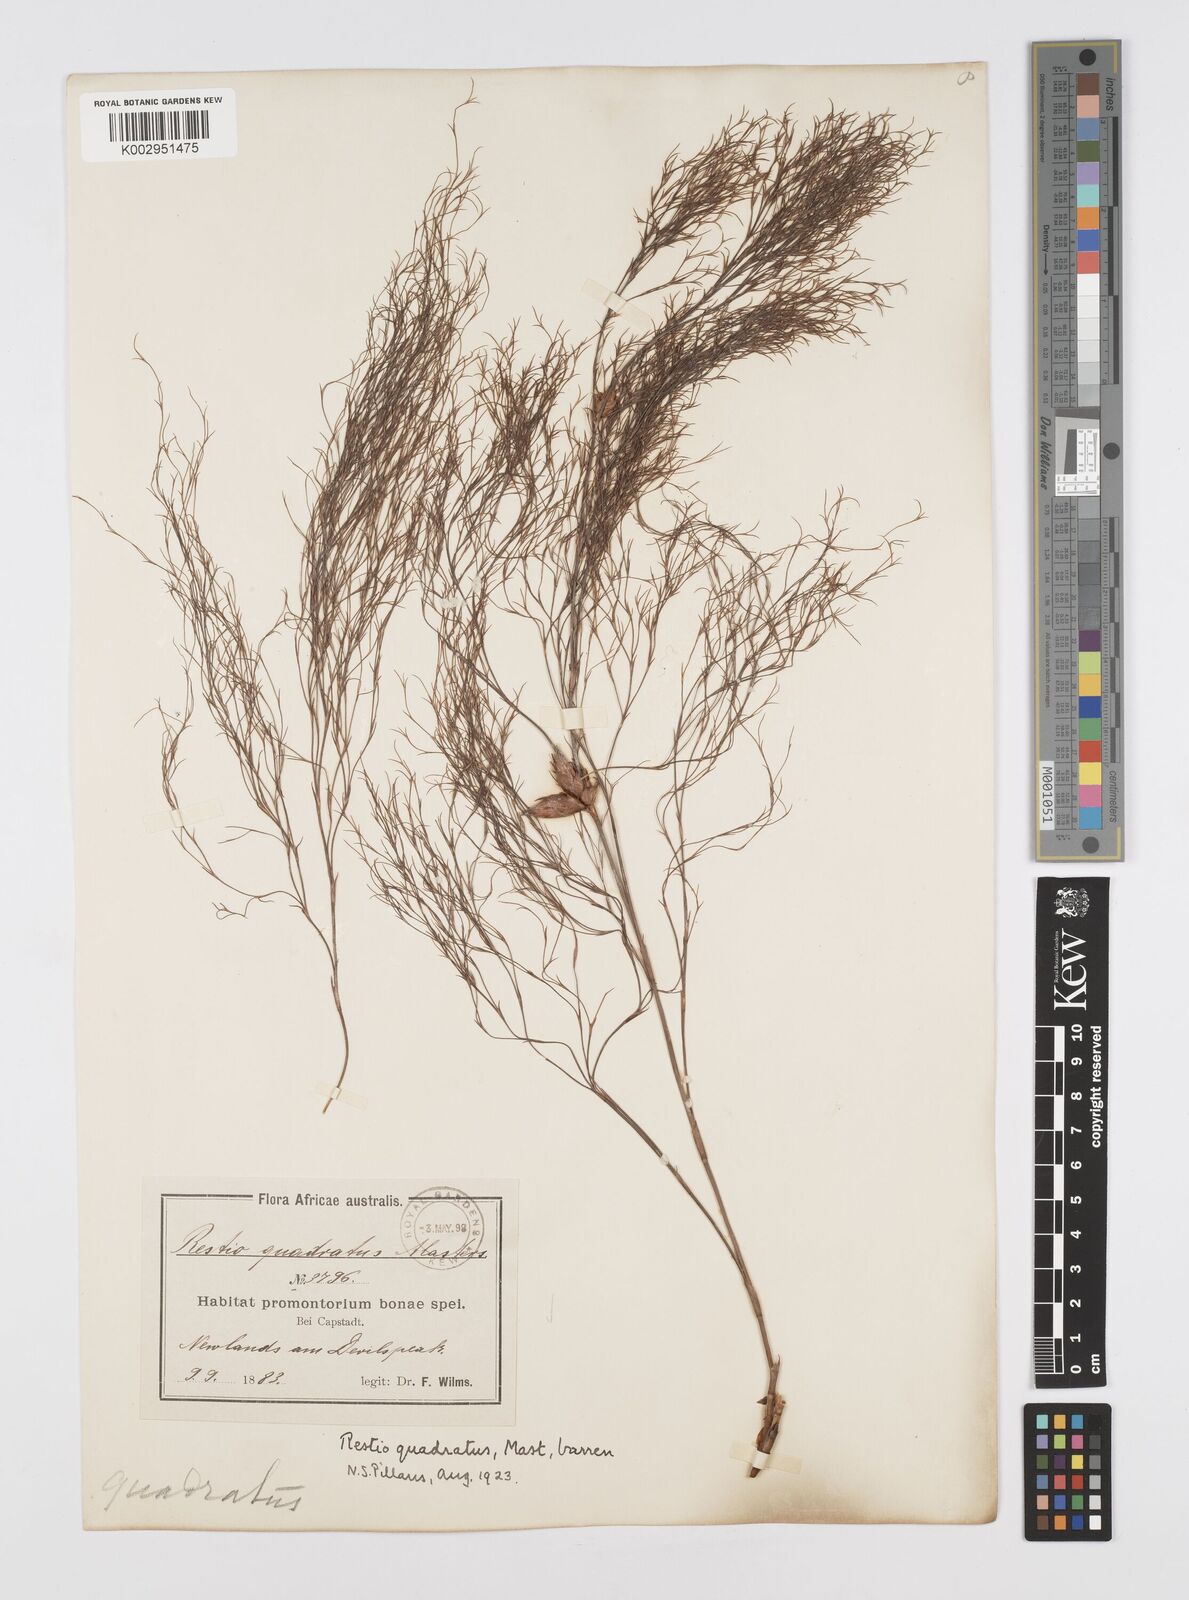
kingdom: Plantae
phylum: Tracheophyta
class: Liliopsida
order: Poales
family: Restionaceae
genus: Restio
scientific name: Restio quadratus
